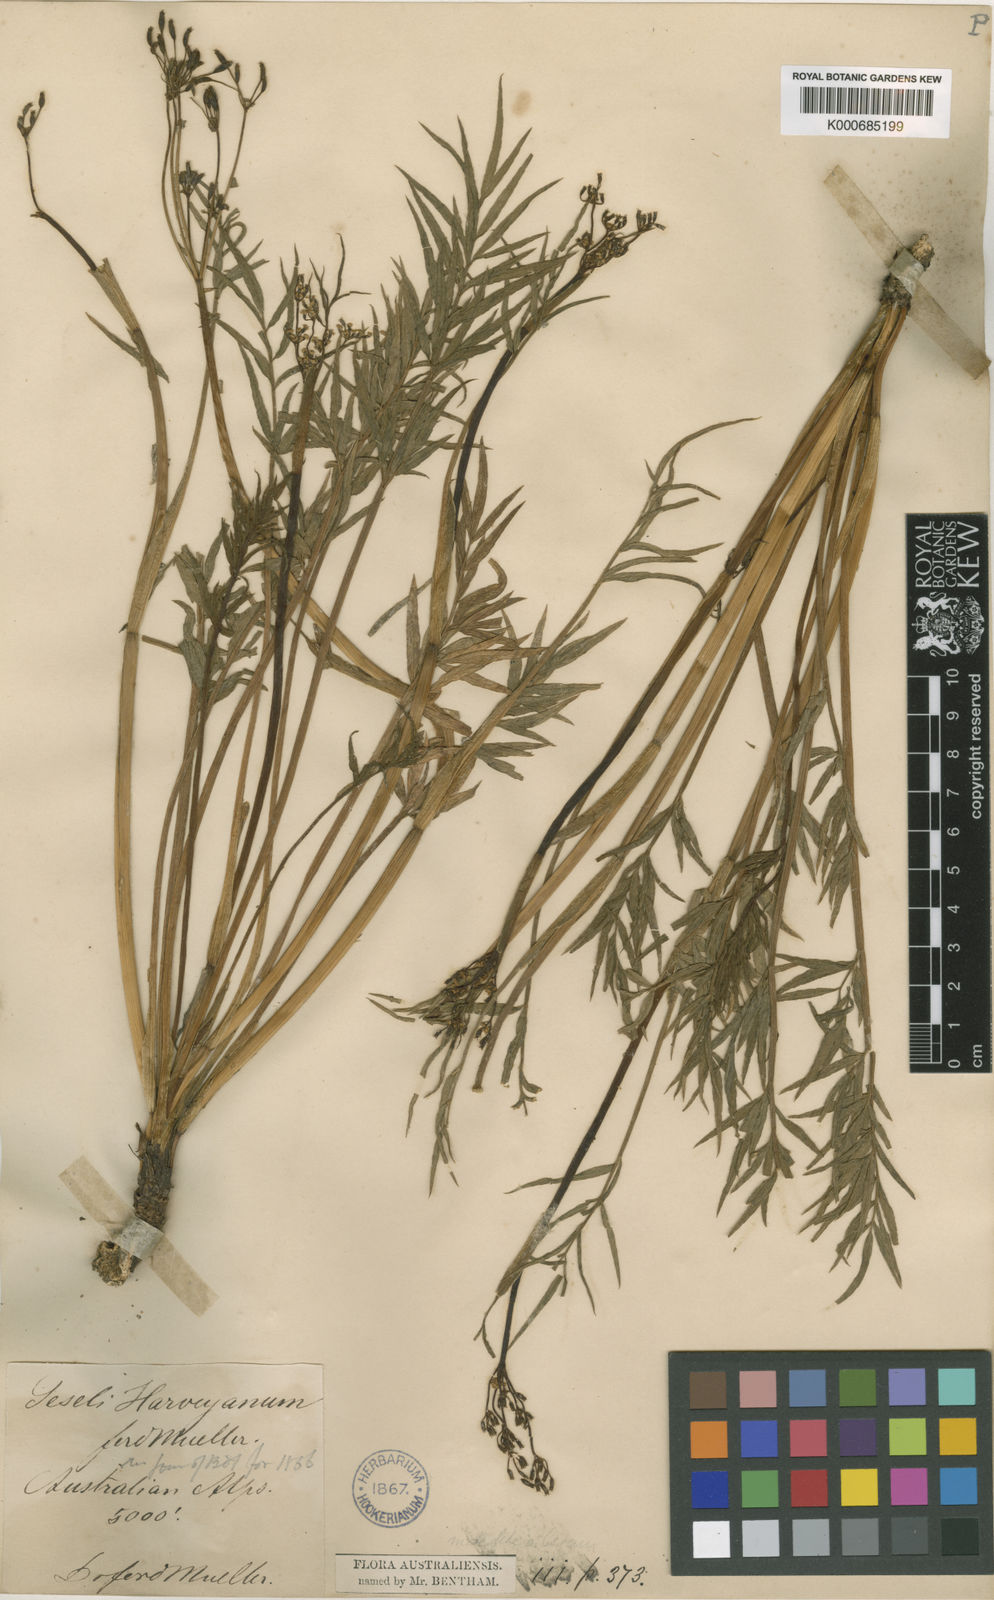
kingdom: Plantae
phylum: Tracheophyta
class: Magnoliopsida
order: Apiales
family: Apiaceae
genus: Gingidia
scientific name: Gingidia harveyana
